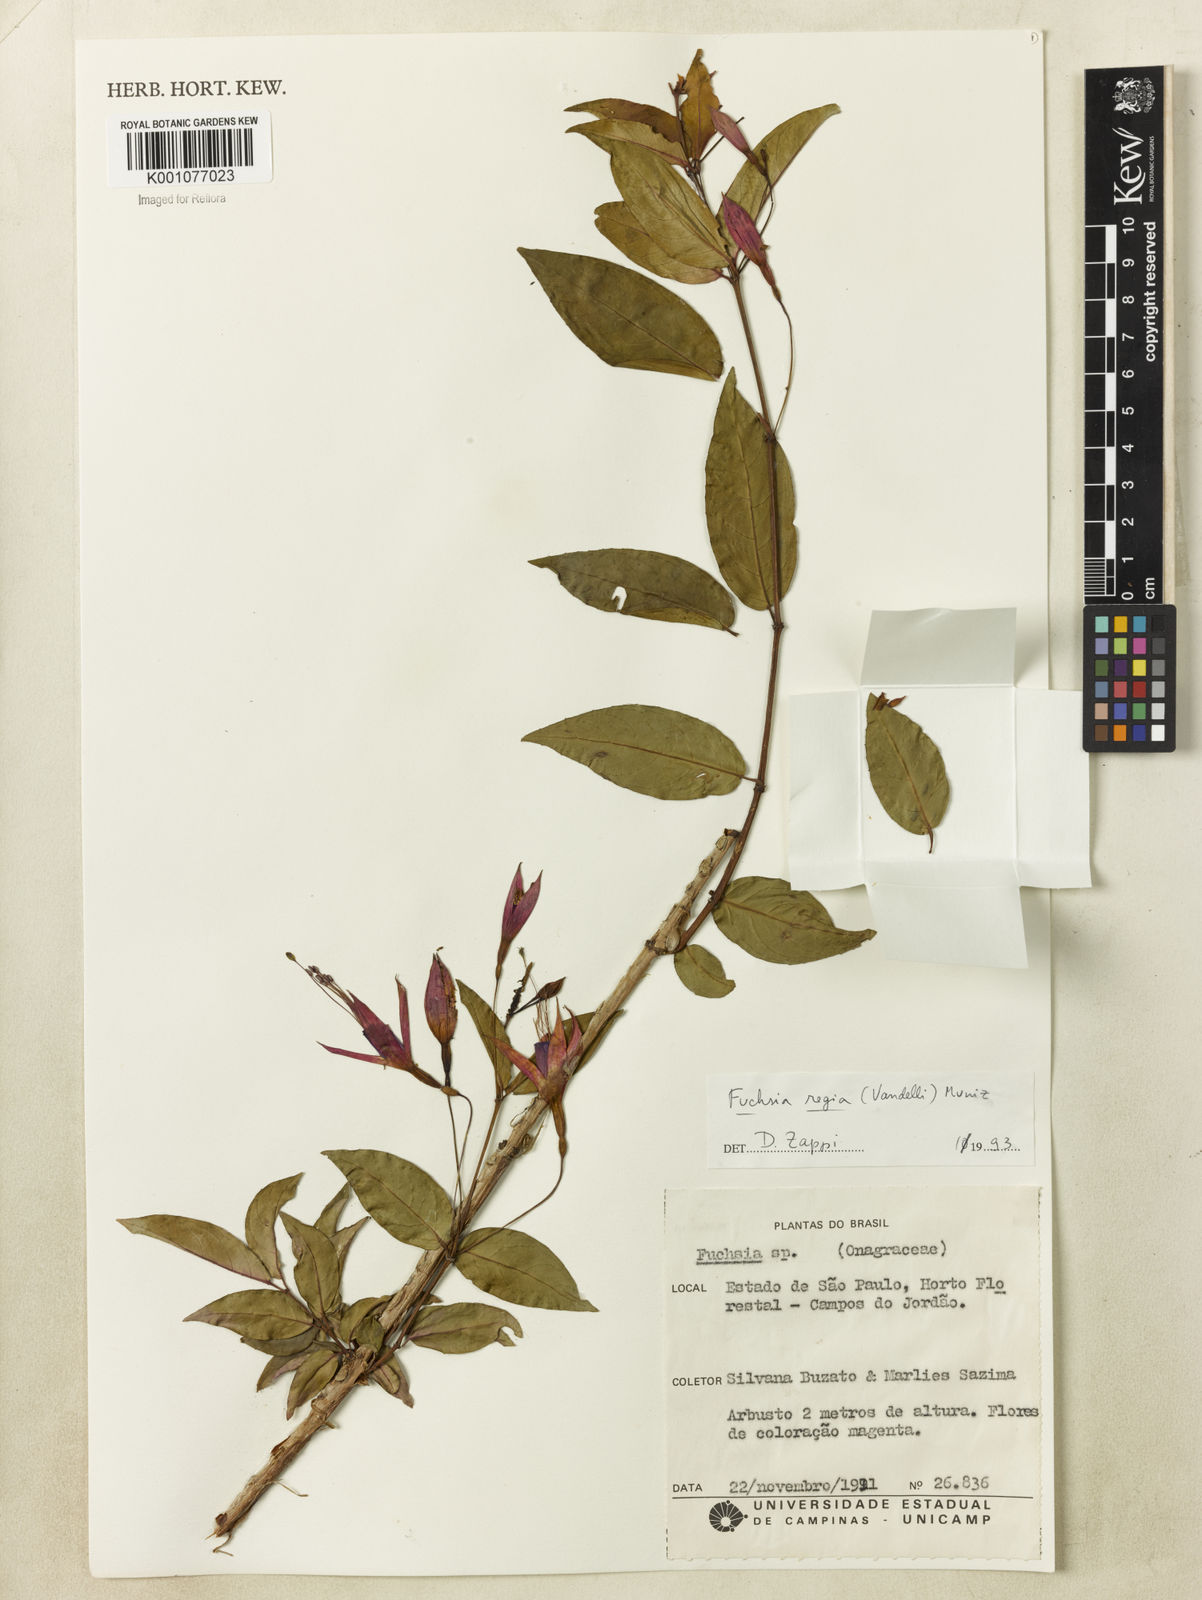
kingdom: Plantae
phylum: Tracheophyta
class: Magnoliopsida
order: Myrtales
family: Onagraceae
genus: Fuchsia
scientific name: Fuchsia regia
